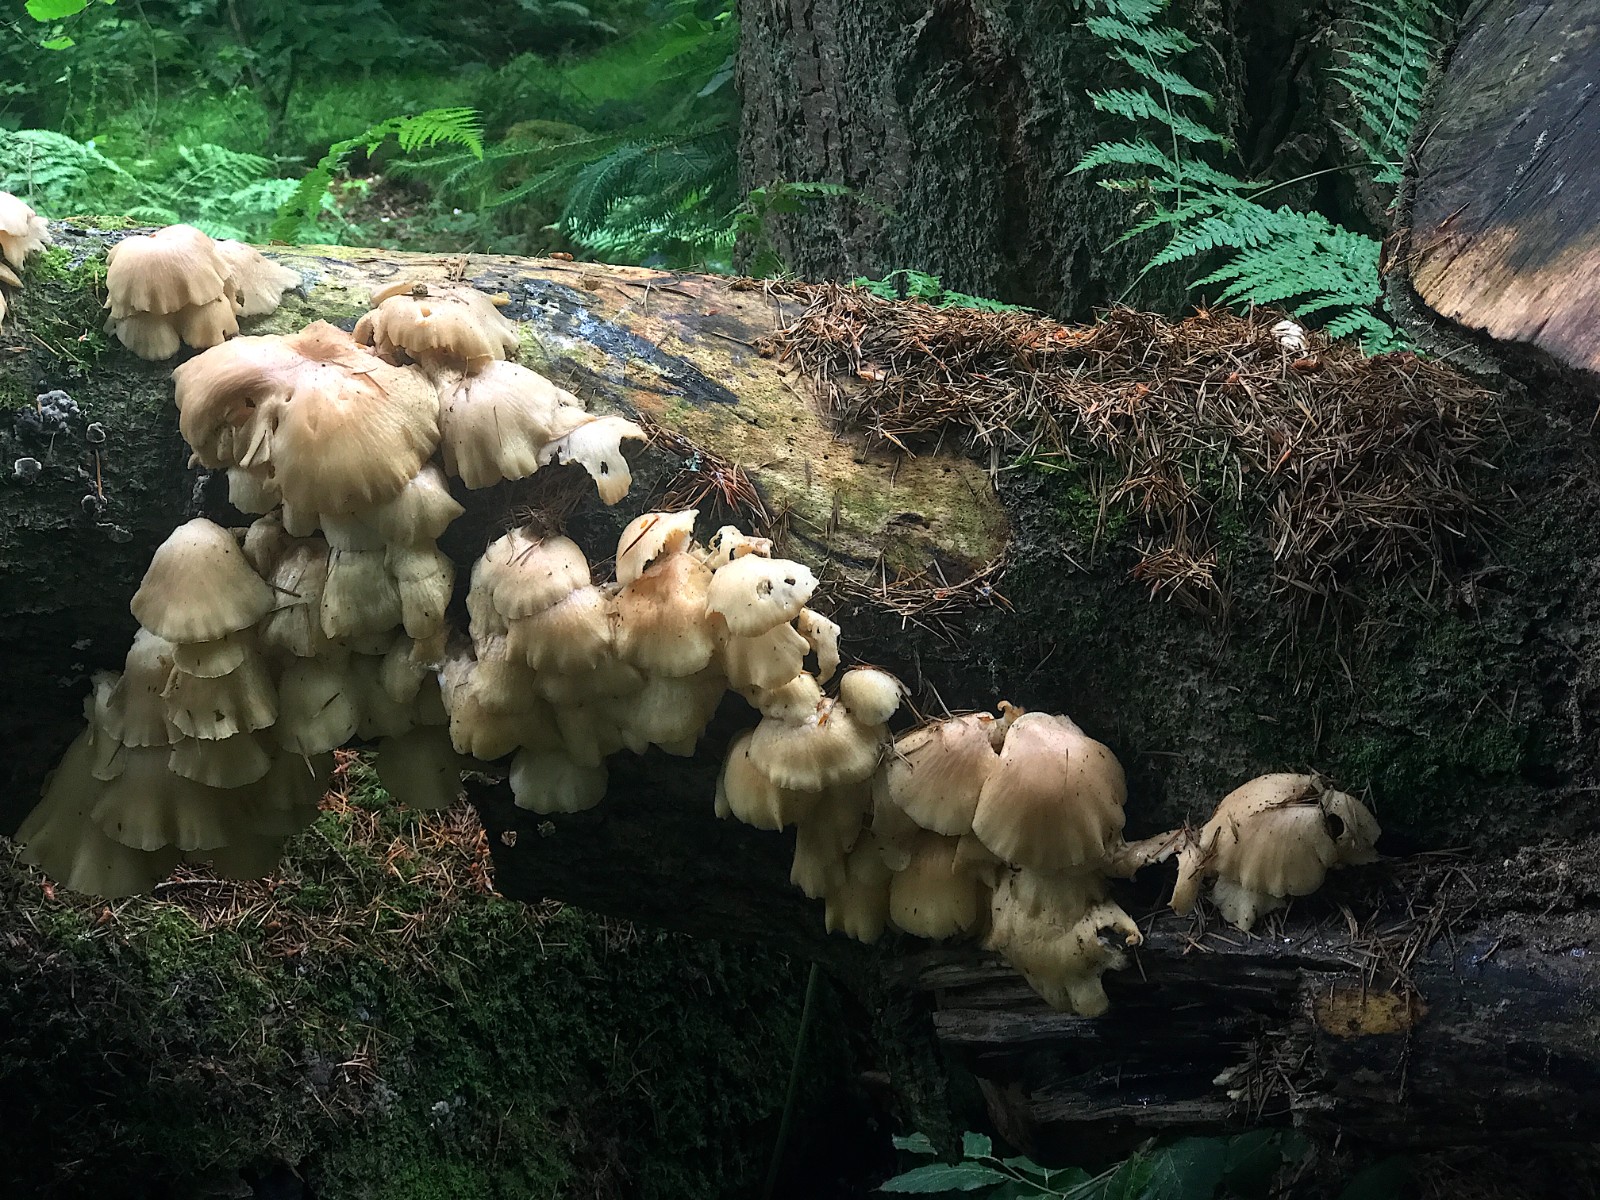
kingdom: Fungi
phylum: Basidiomycota
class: Agaricomycetes
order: Agaricales
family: Pleurotaceae
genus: Pleurotus
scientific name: Pleurotus pulmonarius
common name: sommer-østershat
